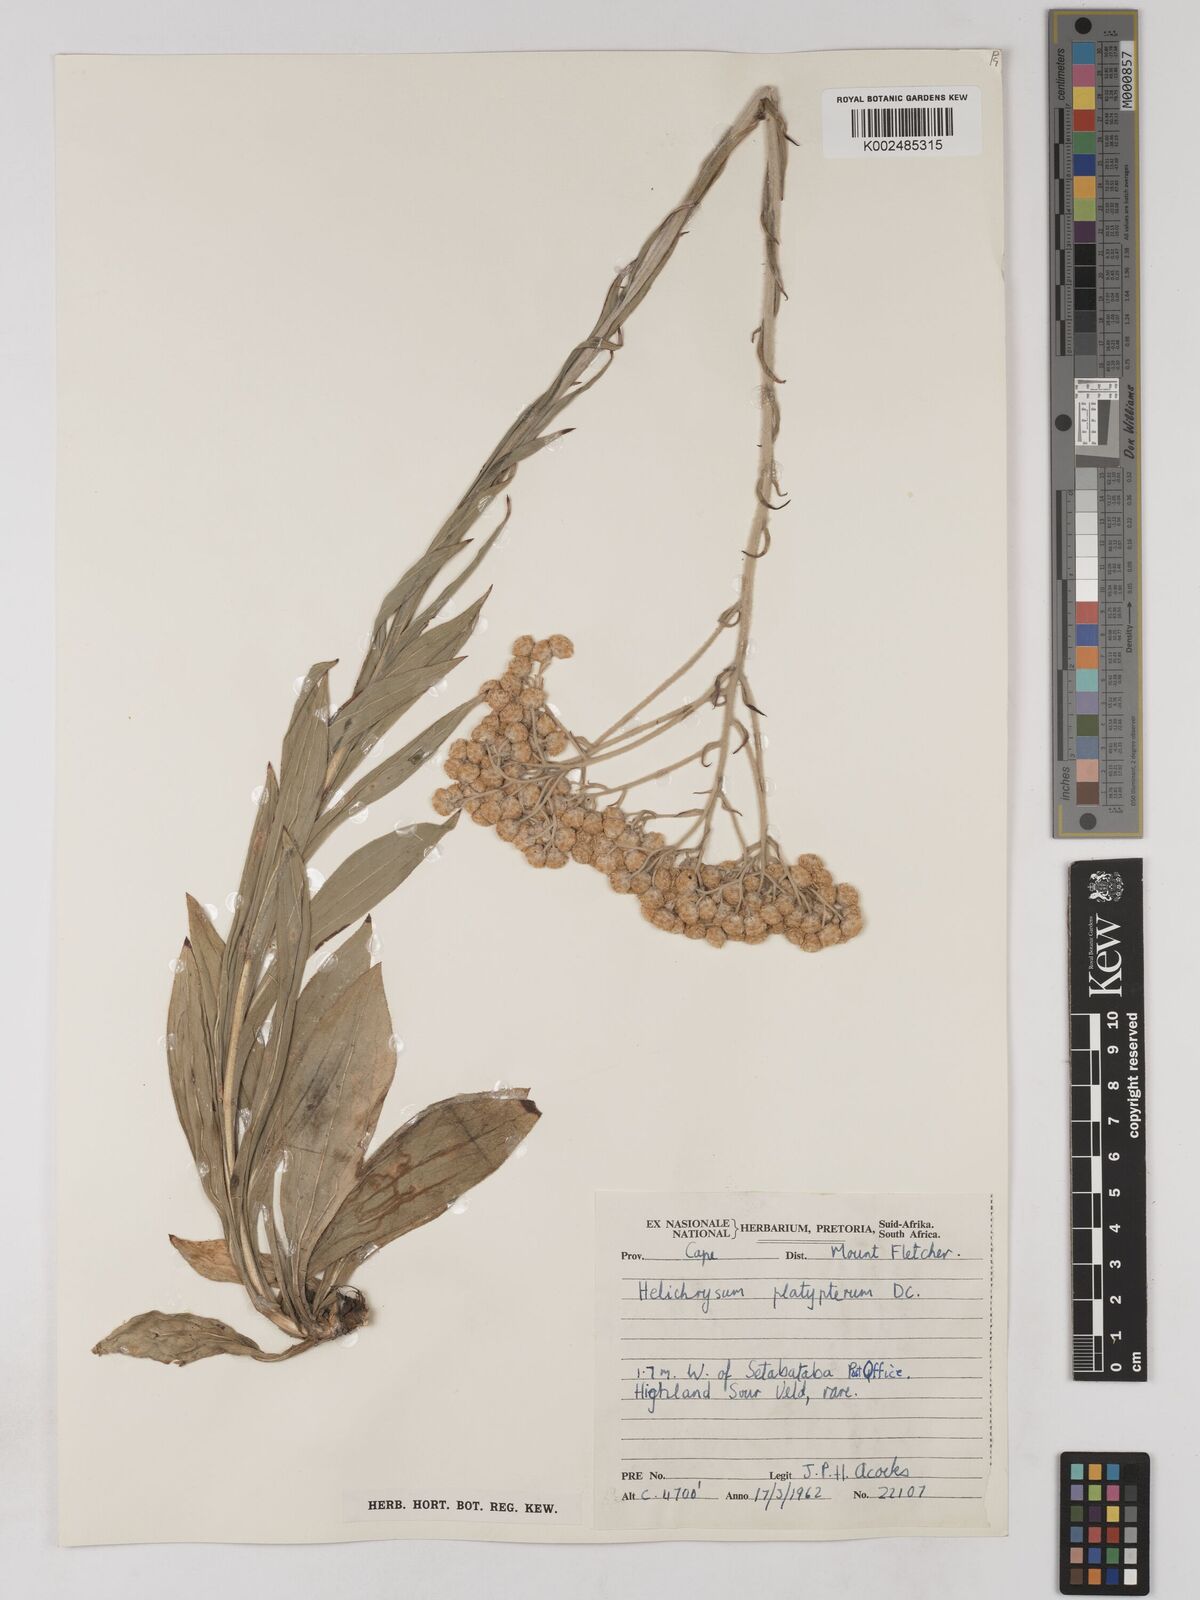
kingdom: Plantae
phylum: Tracheophyta
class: Magnoliopsida
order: Asterales
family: Asteraceae
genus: Helichrysum
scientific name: Helichrysum platypterum
